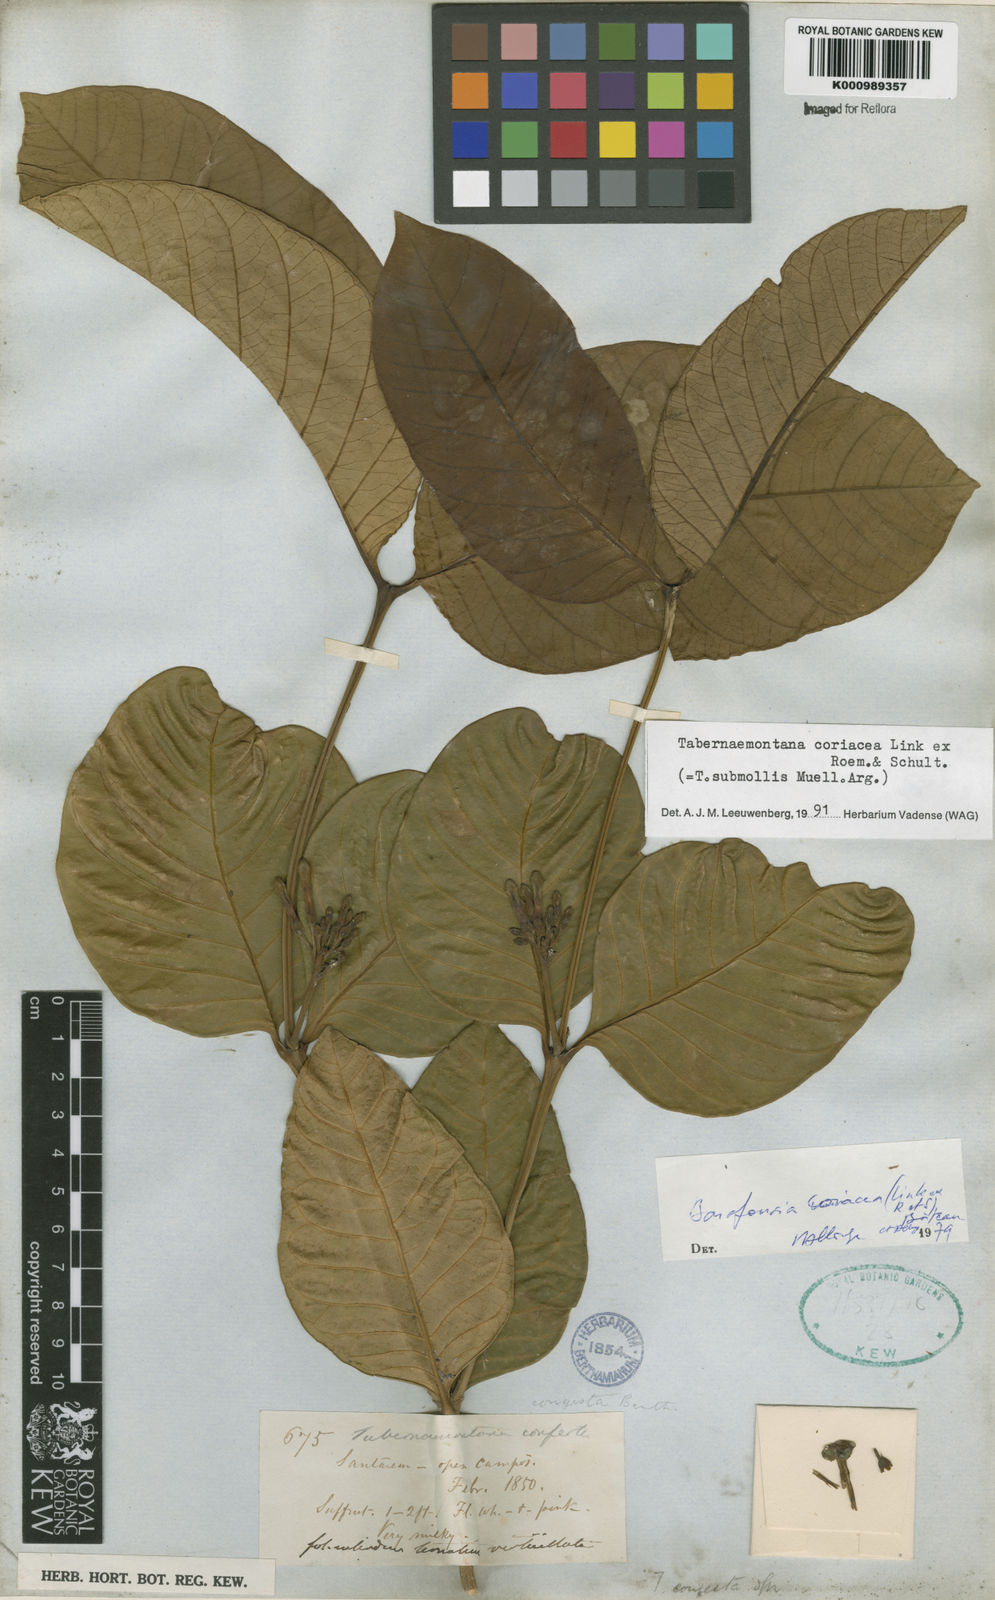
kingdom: Plantae
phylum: Tracheophyta
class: Magnoliopsida
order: Gentianales
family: Apocynaceae
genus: Tabernaemontana
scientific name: Tabernaemontana coriacea
